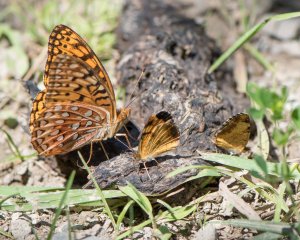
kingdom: Animalia
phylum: Arthropoda
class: Insecta
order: Lepidoptera
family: Nymphalidae
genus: Speyeria
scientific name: Speyeria aphrodite
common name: Aphrodite Fritillary
